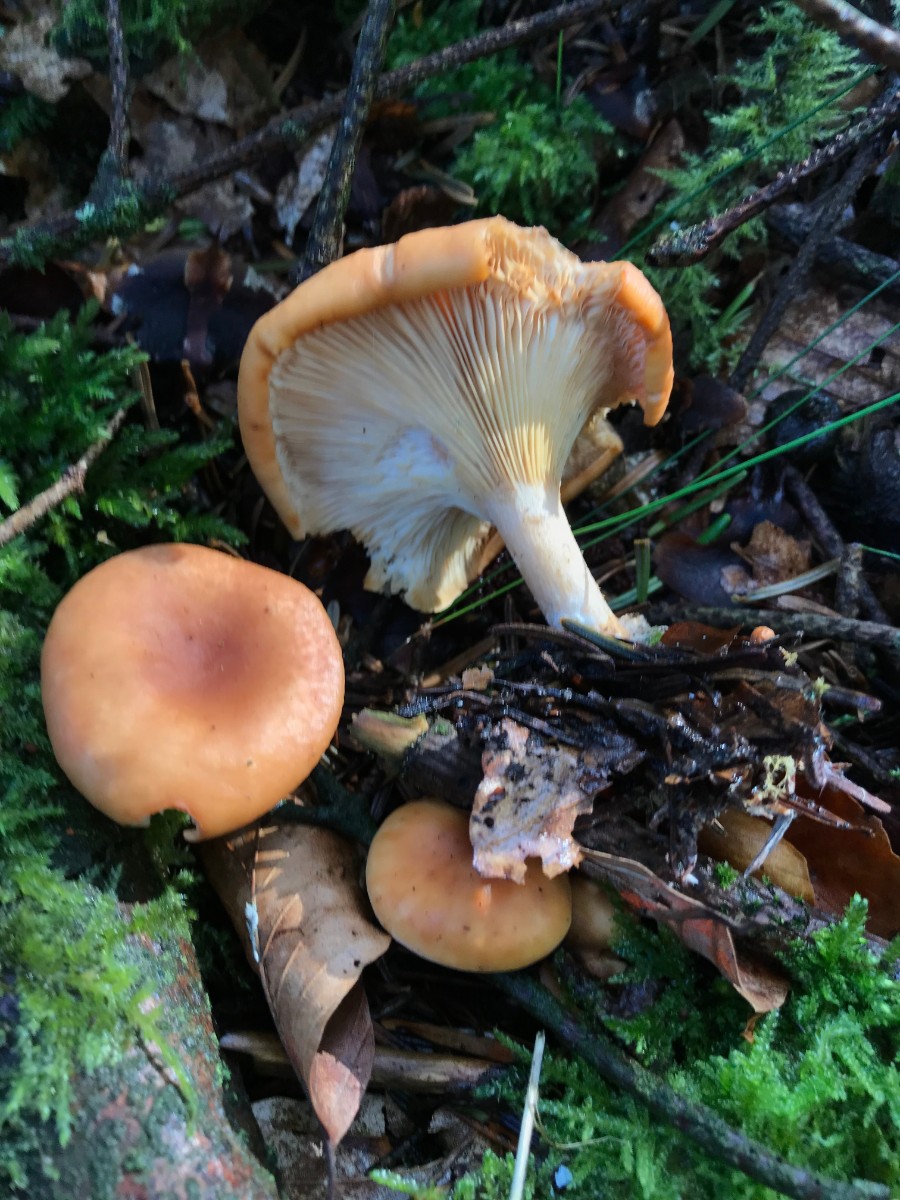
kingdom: Fungi
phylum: Basidiomycota
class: Agaricomycetes
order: Agaricales
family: Tricholomataceae
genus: Paralepista
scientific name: Paralepista flaccida
